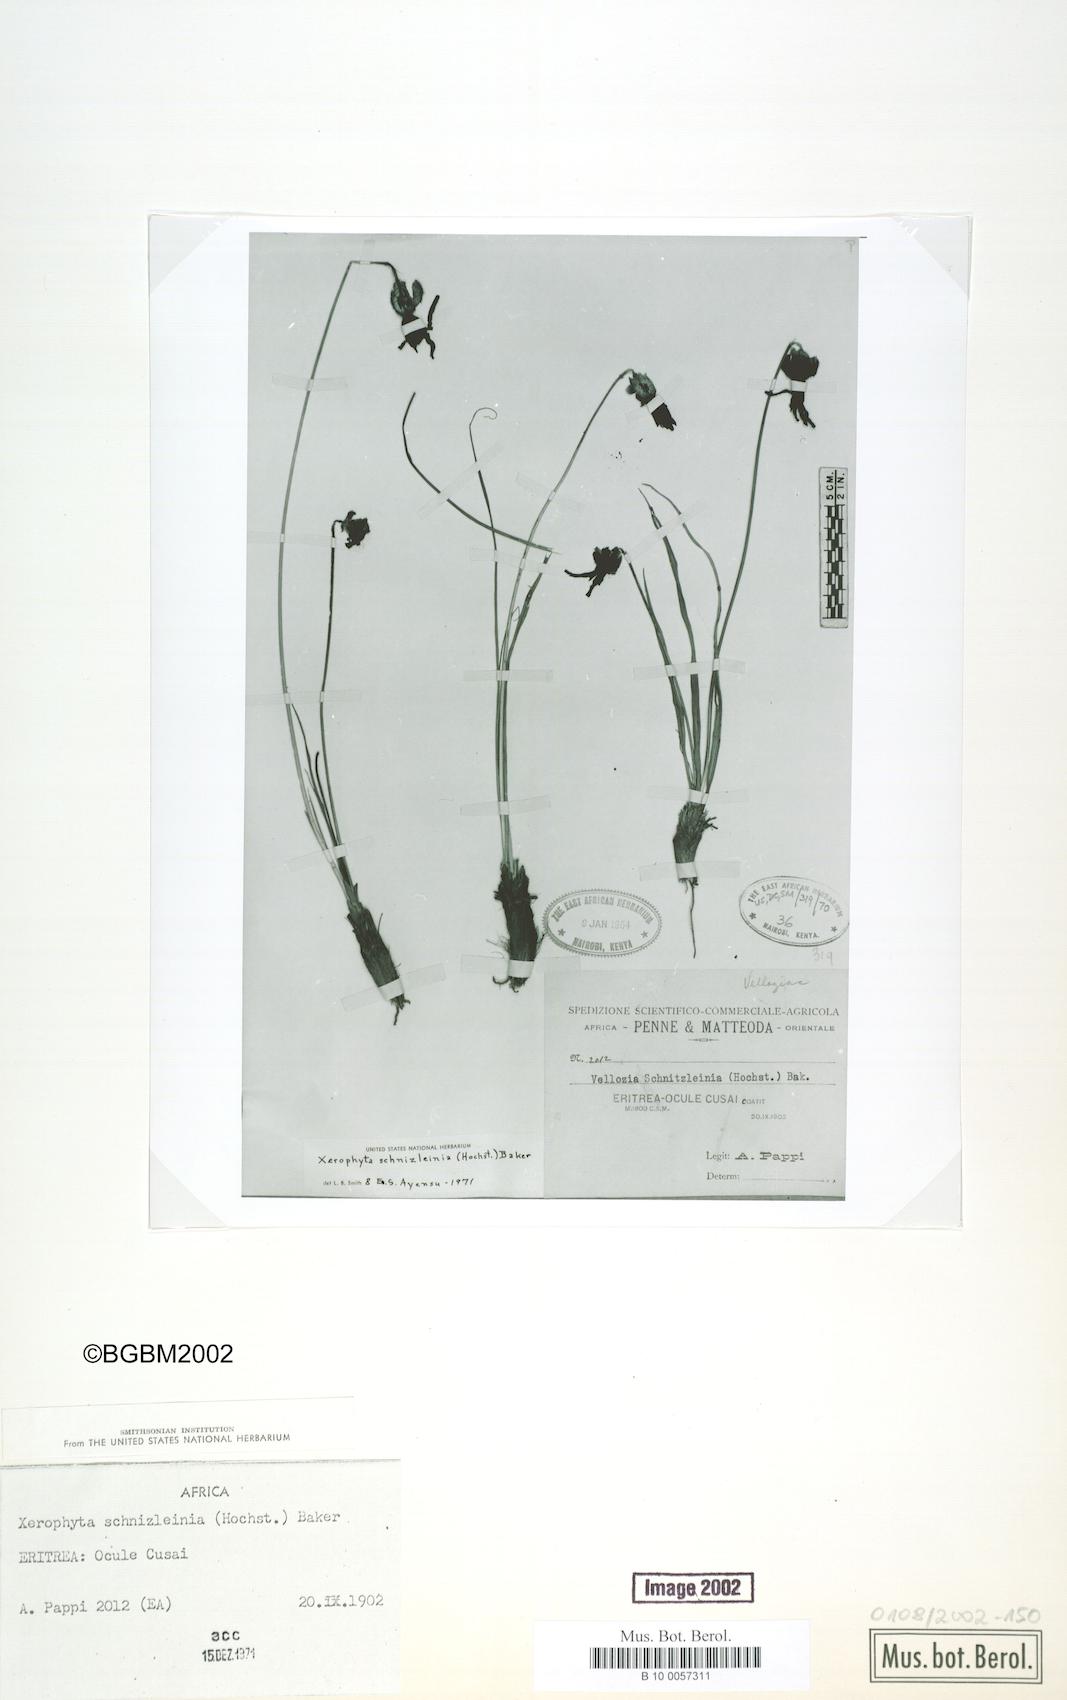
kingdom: Plantae
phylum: Tracheophyta
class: Liliopsida
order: Pandanales
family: Velloziaceae
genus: Xerophyta
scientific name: Xerophyta schnizleinia
